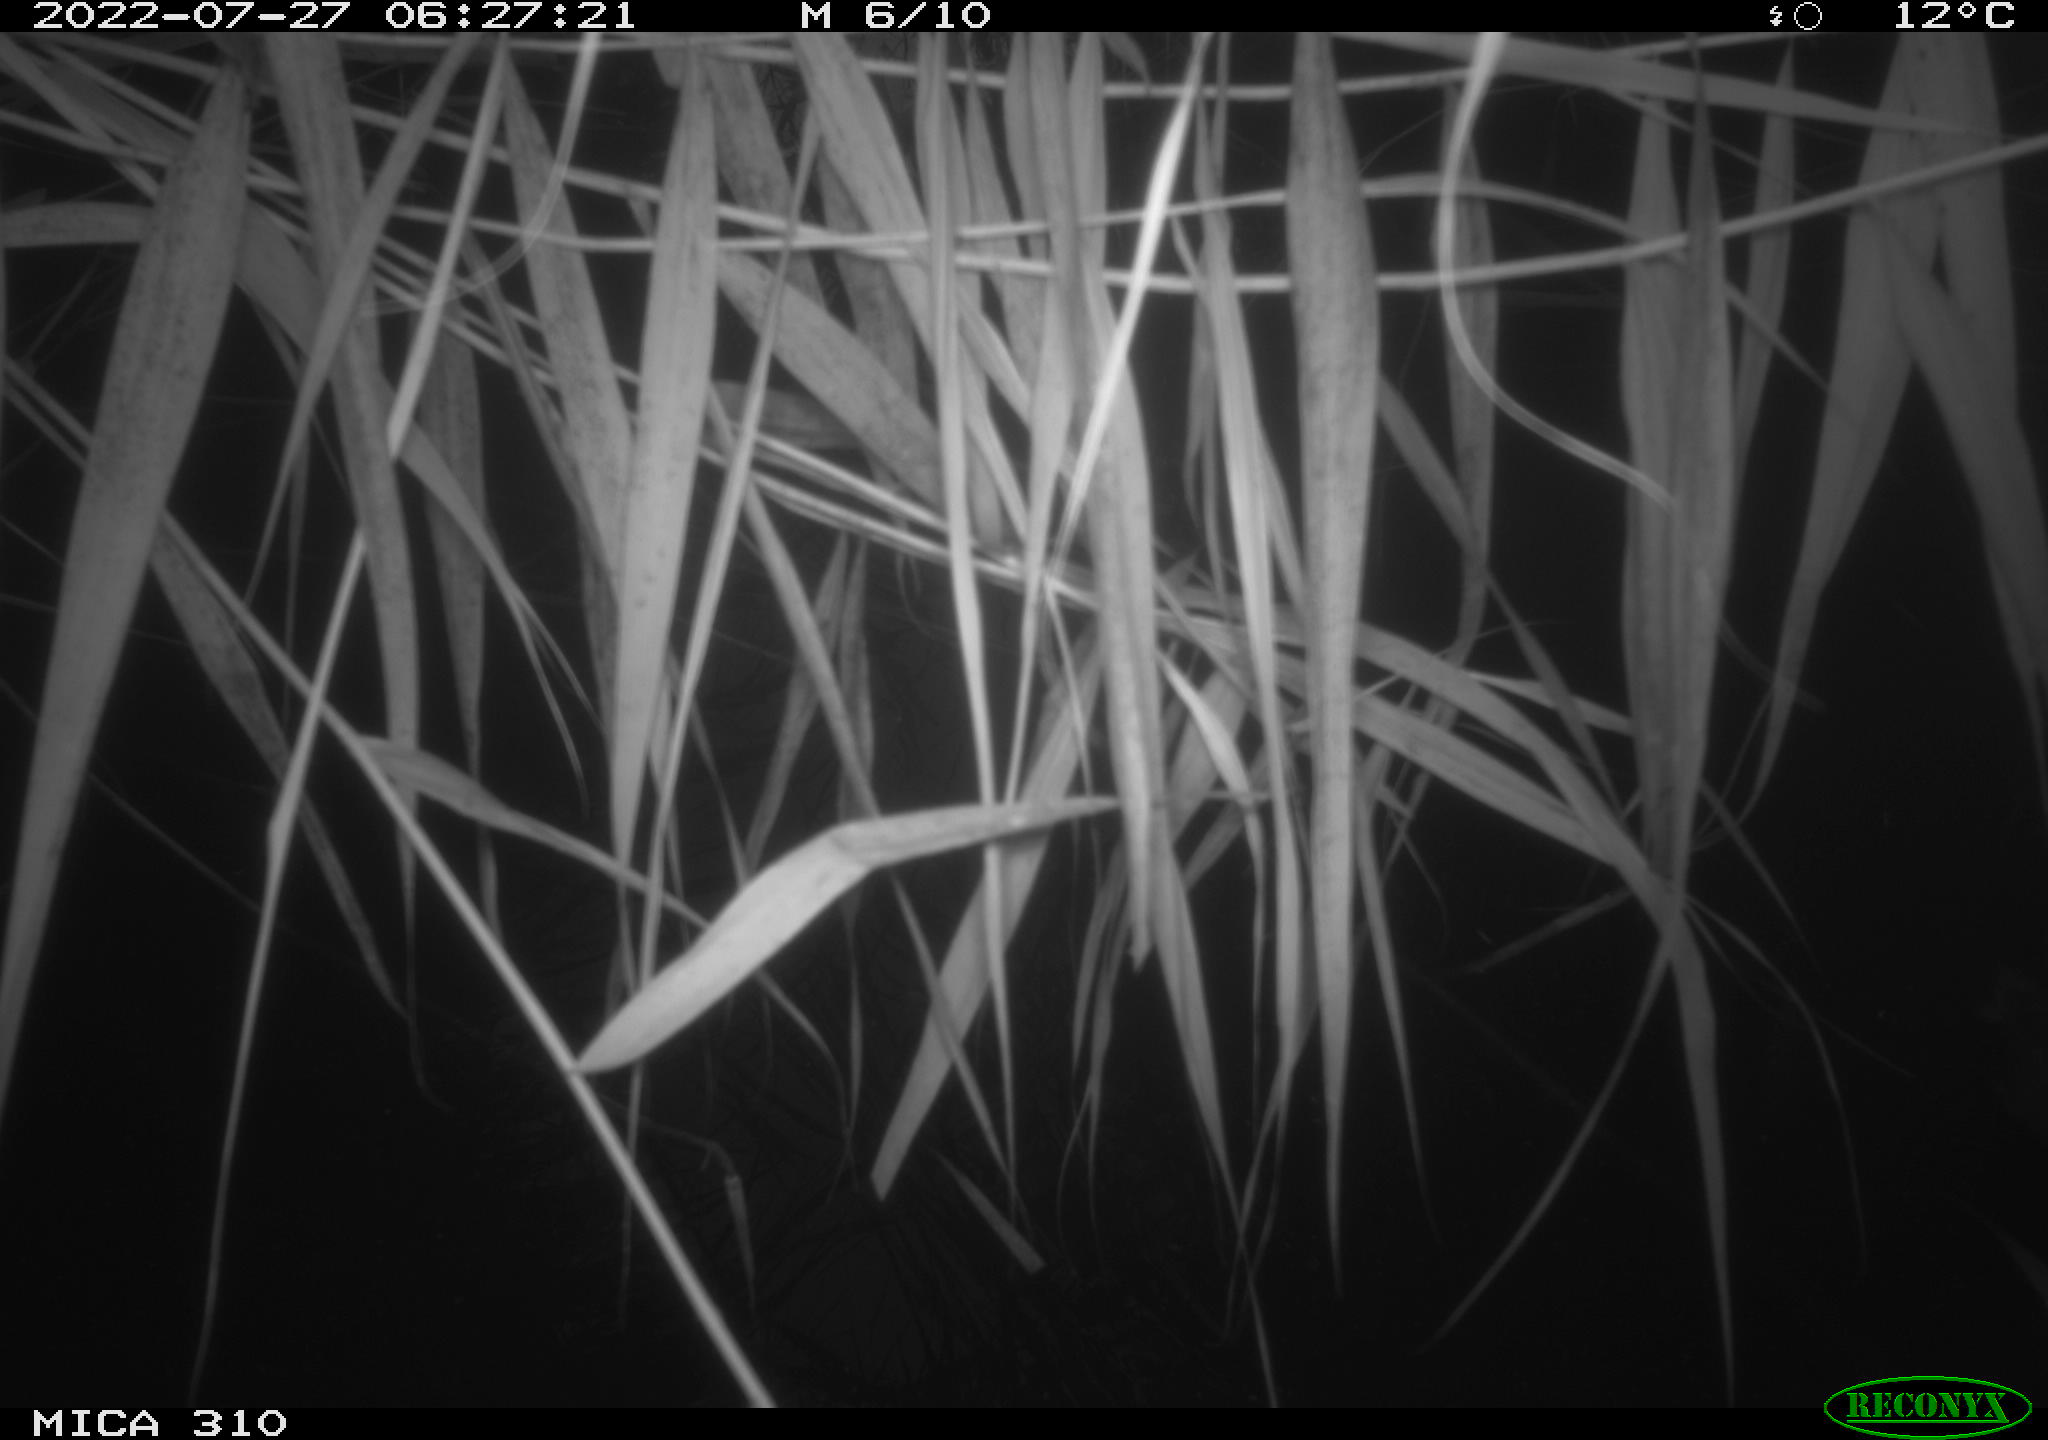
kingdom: Animalia
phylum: Chordata
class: Aves
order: Gruiformes
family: Rallidae
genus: Fulica
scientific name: Fulica atra
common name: Eurasian coot
